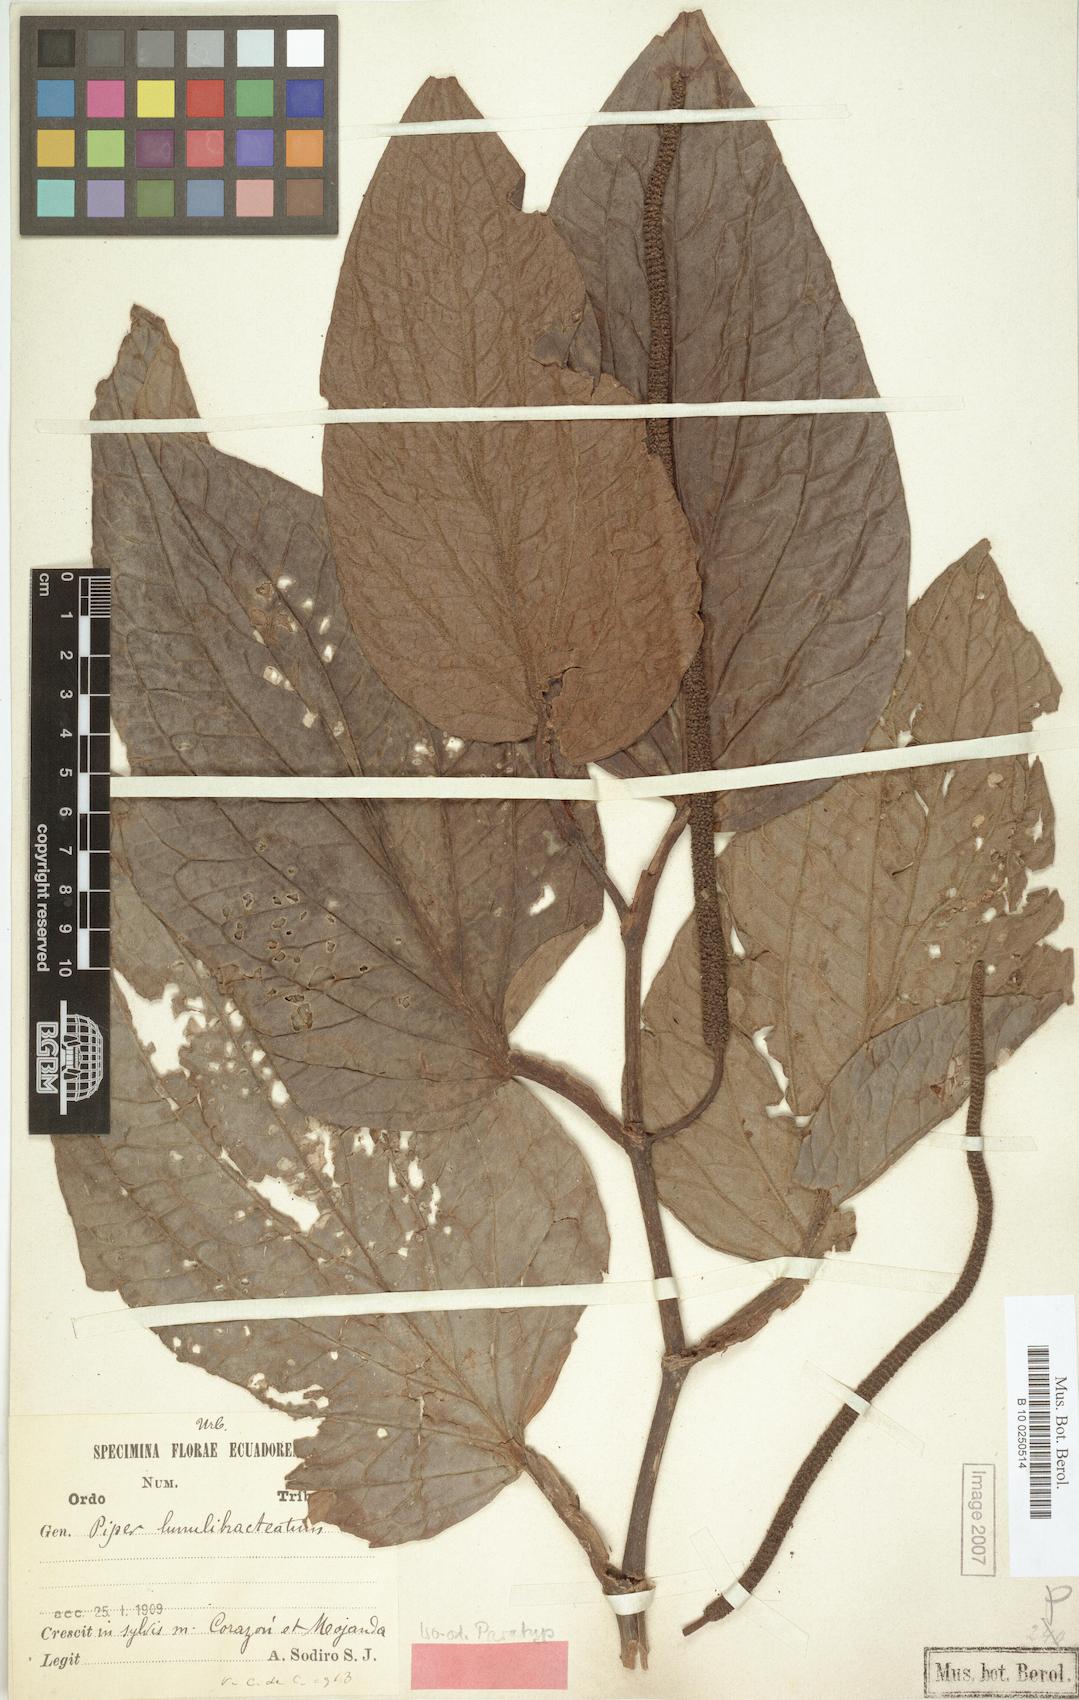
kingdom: Plantae
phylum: Tracheophyta
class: Magnoliopsida
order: Piperales
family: Piperaceae
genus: Piper
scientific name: Piper lunulibracteatum
